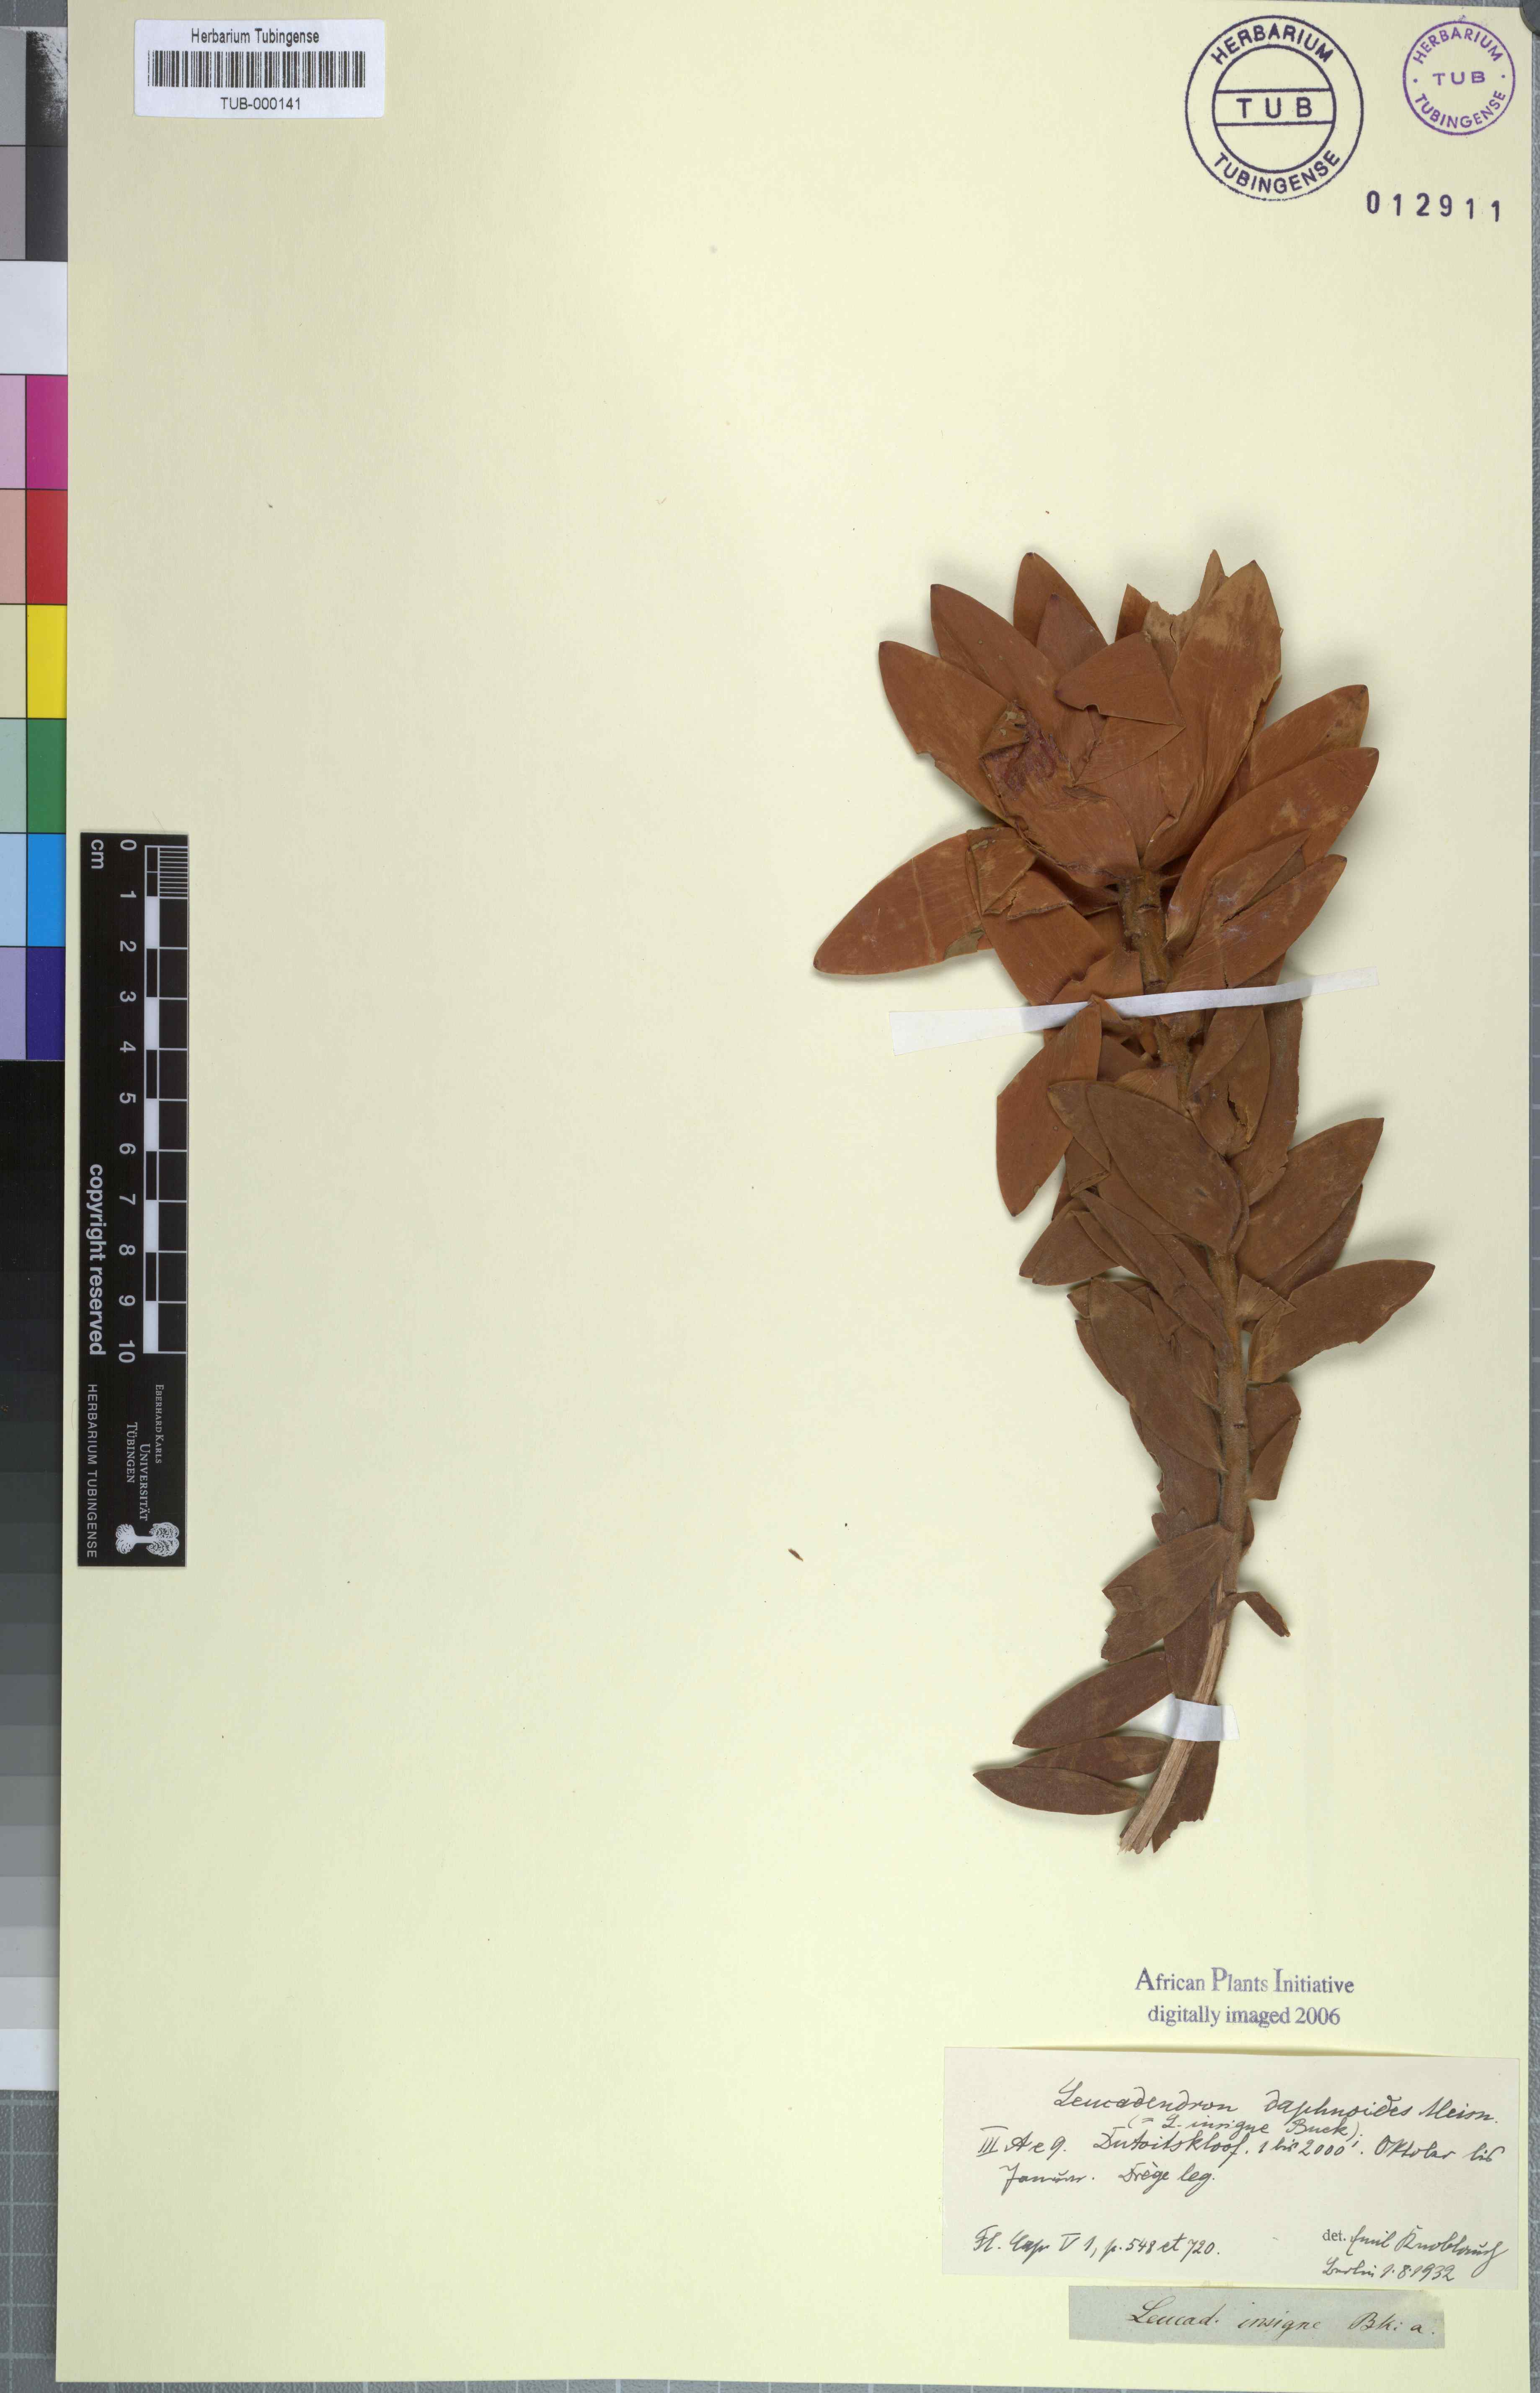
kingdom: Plantae
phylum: Tracheophyta
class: Magnoliopsida
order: Proteales
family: Proteaceae
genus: Leucadendron
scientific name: Leucadendron daphnoides
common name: Du toit's kloof conebush
